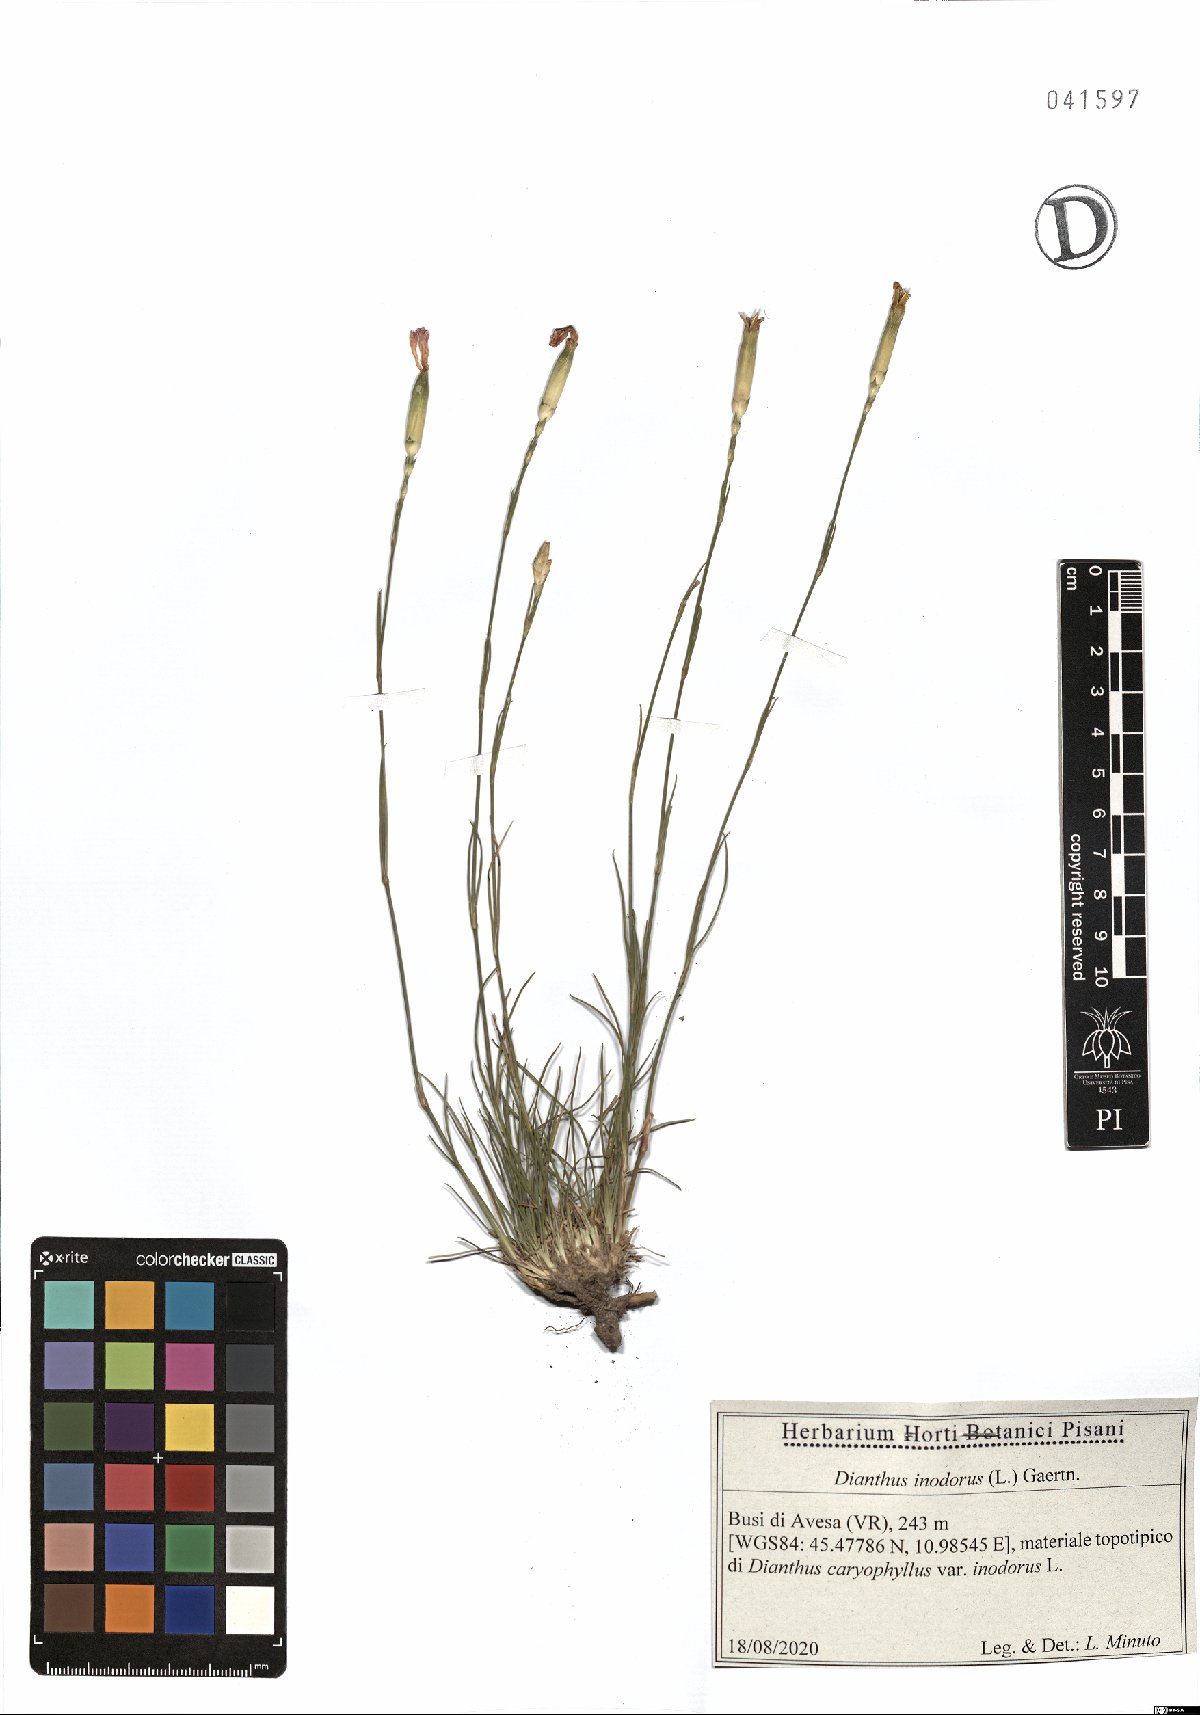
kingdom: Plantae
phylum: Tracheophyta
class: Magnoliopsida
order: Caryophyllales
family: Caryophyllaceae
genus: Dianthus
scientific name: Dianthus sylvestris
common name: Wood pink
